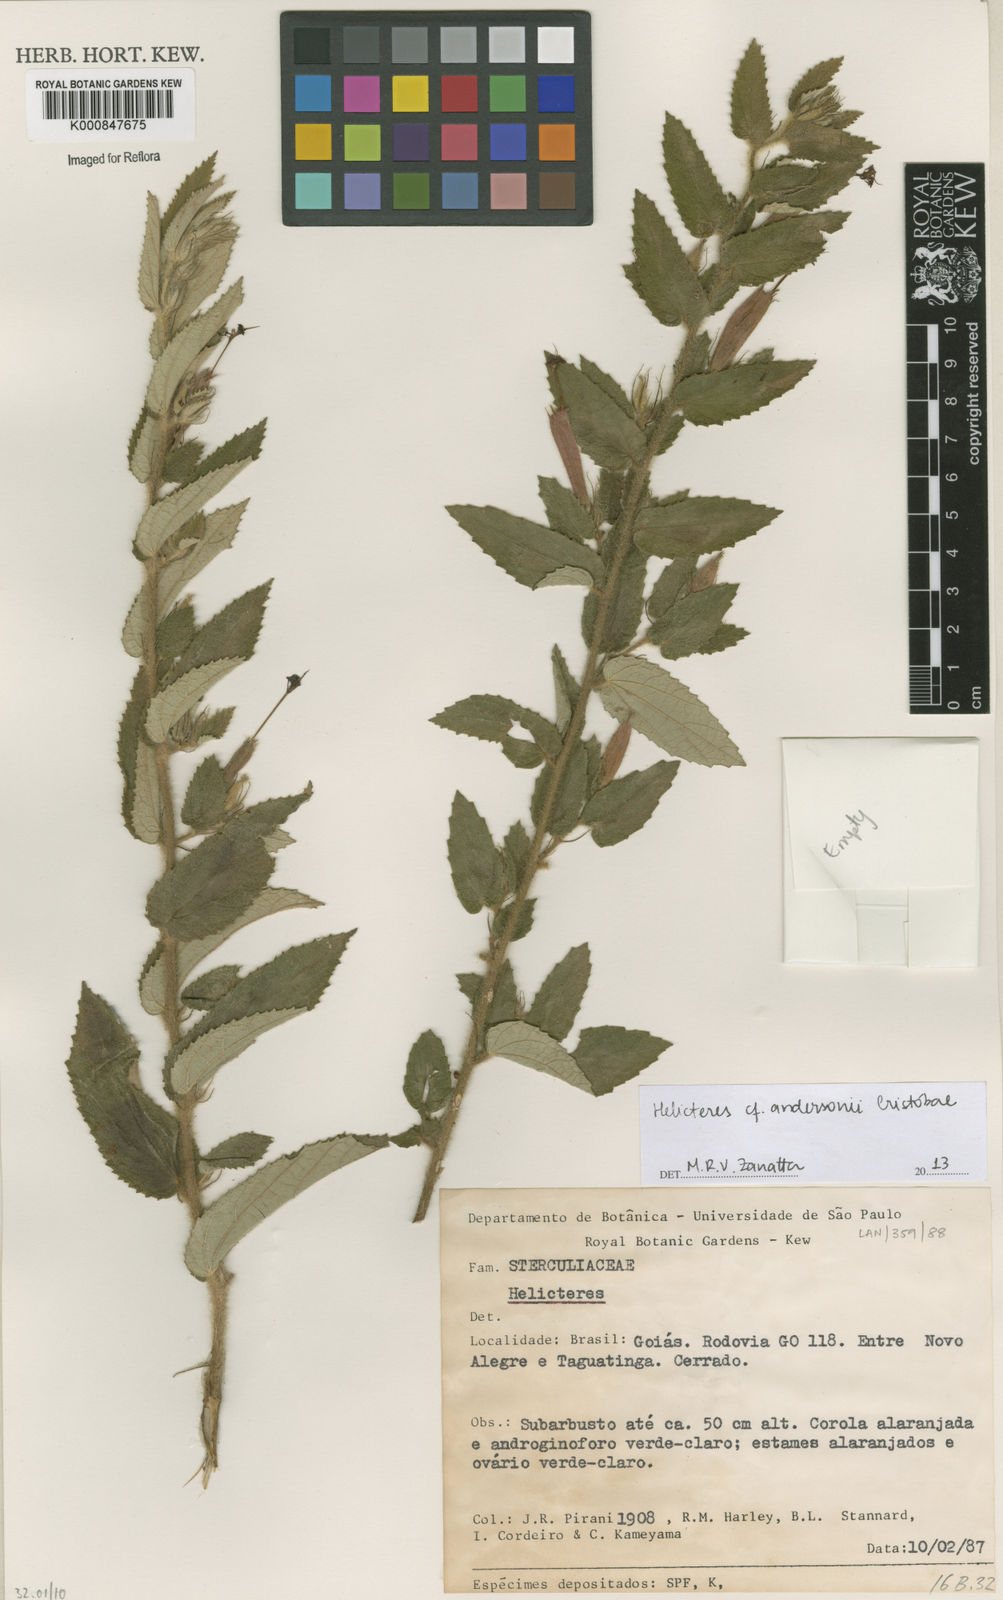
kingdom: Plantae
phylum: Tracheophyta
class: Magnoliopsida
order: Malvales
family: Malvaceae
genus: Helicteres
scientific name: Helicteres
